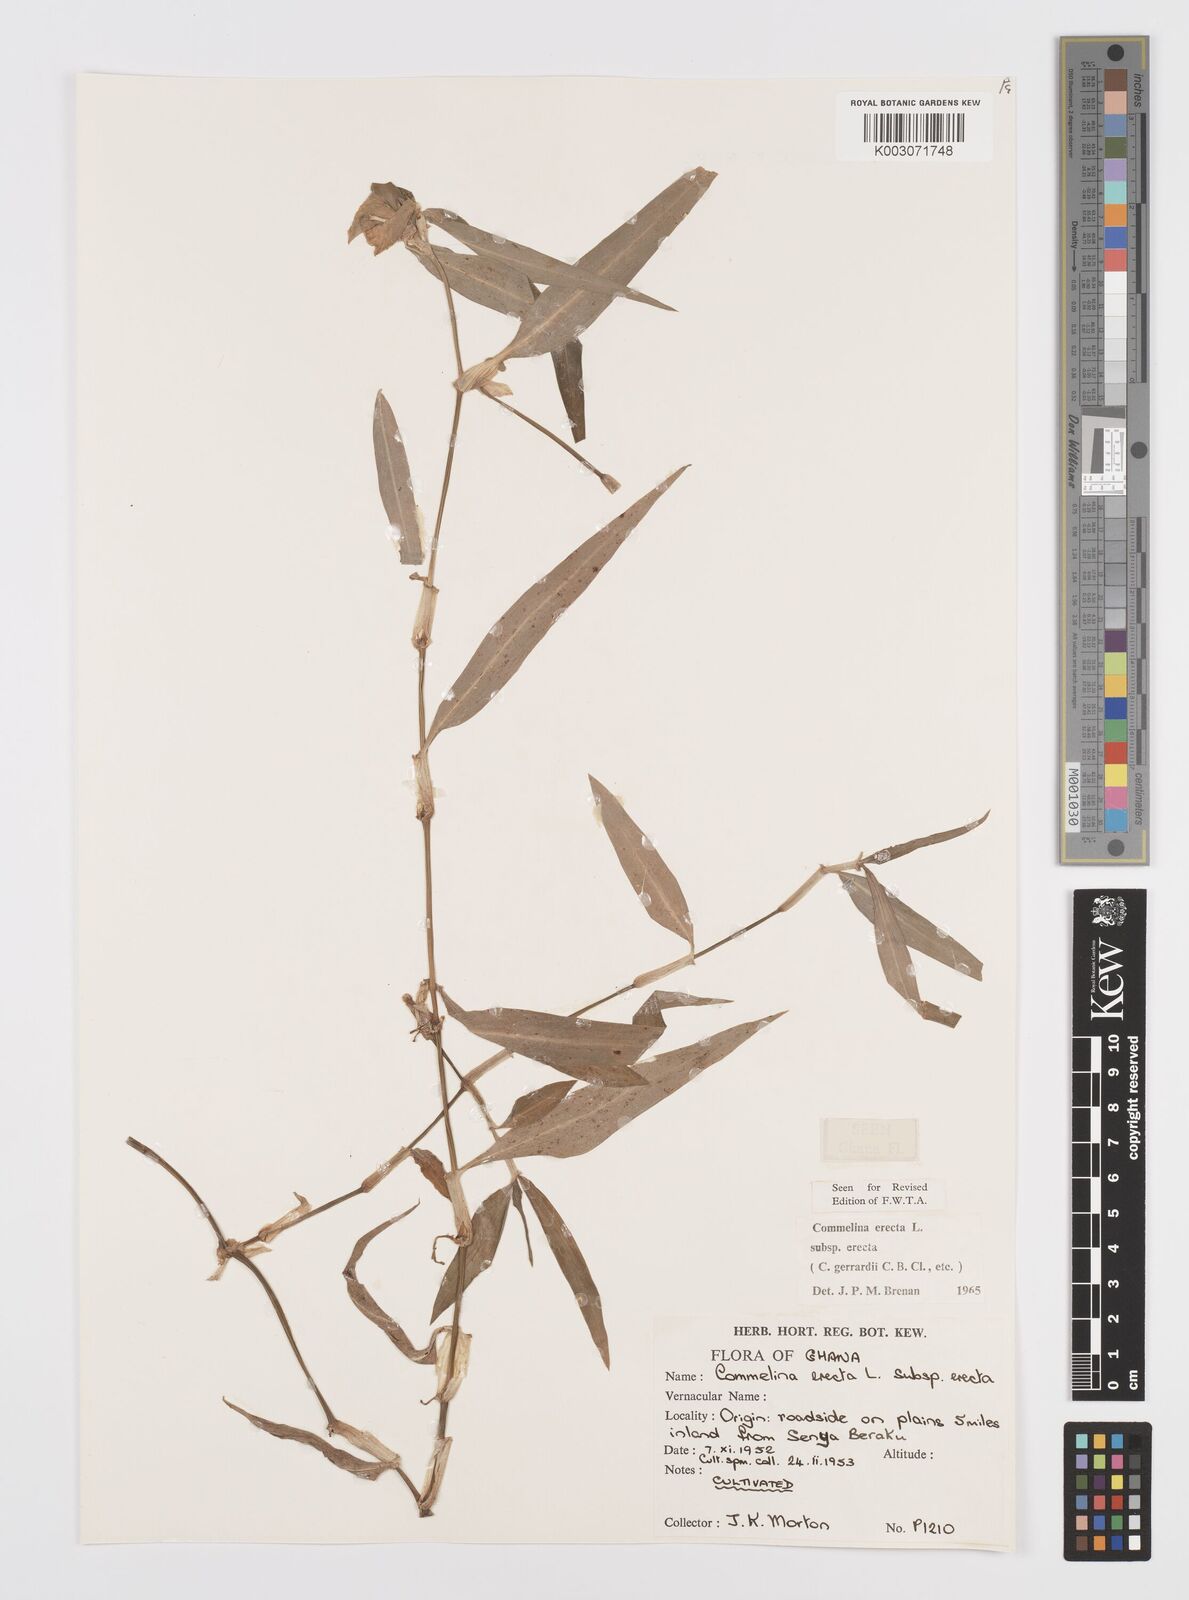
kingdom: Plantae
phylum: Tracheophyta
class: Liliopsida
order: Commelinales
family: Commelinaceae
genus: Commelina
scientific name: Commelina erecta
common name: Blousel blommetjie
